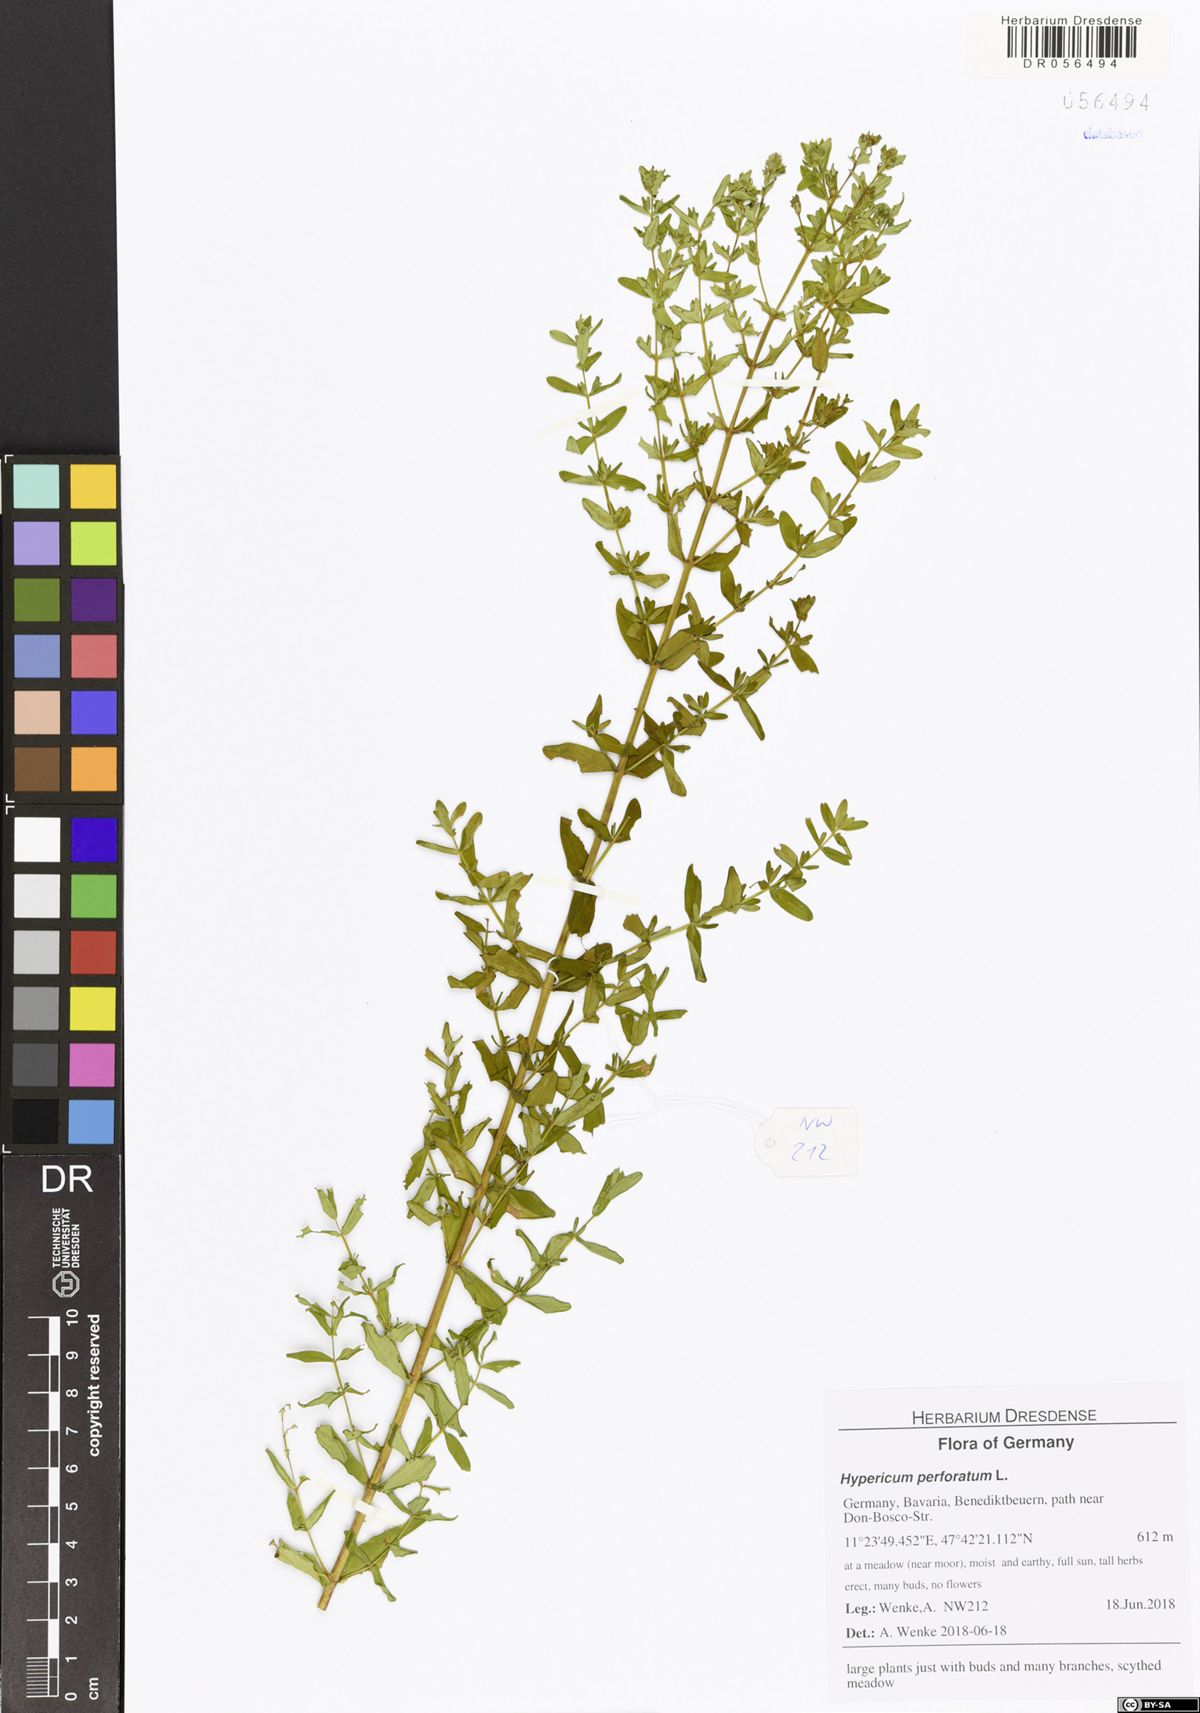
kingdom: Plantae
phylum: Tracheophyta
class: Magnoliopsida
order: Malpighiales
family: Hypericaceae
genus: Hypericum
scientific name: Hypericum perforatum
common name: Common st. johnswort
